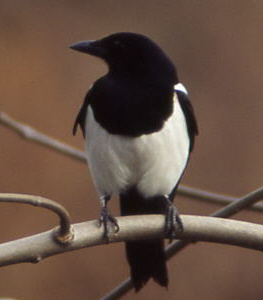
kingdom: Animalia
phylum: Chordata
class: Aves
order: Passeriformes
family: Corvidae
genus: Pica
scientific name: Pica pica
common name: Eurasian magpie
